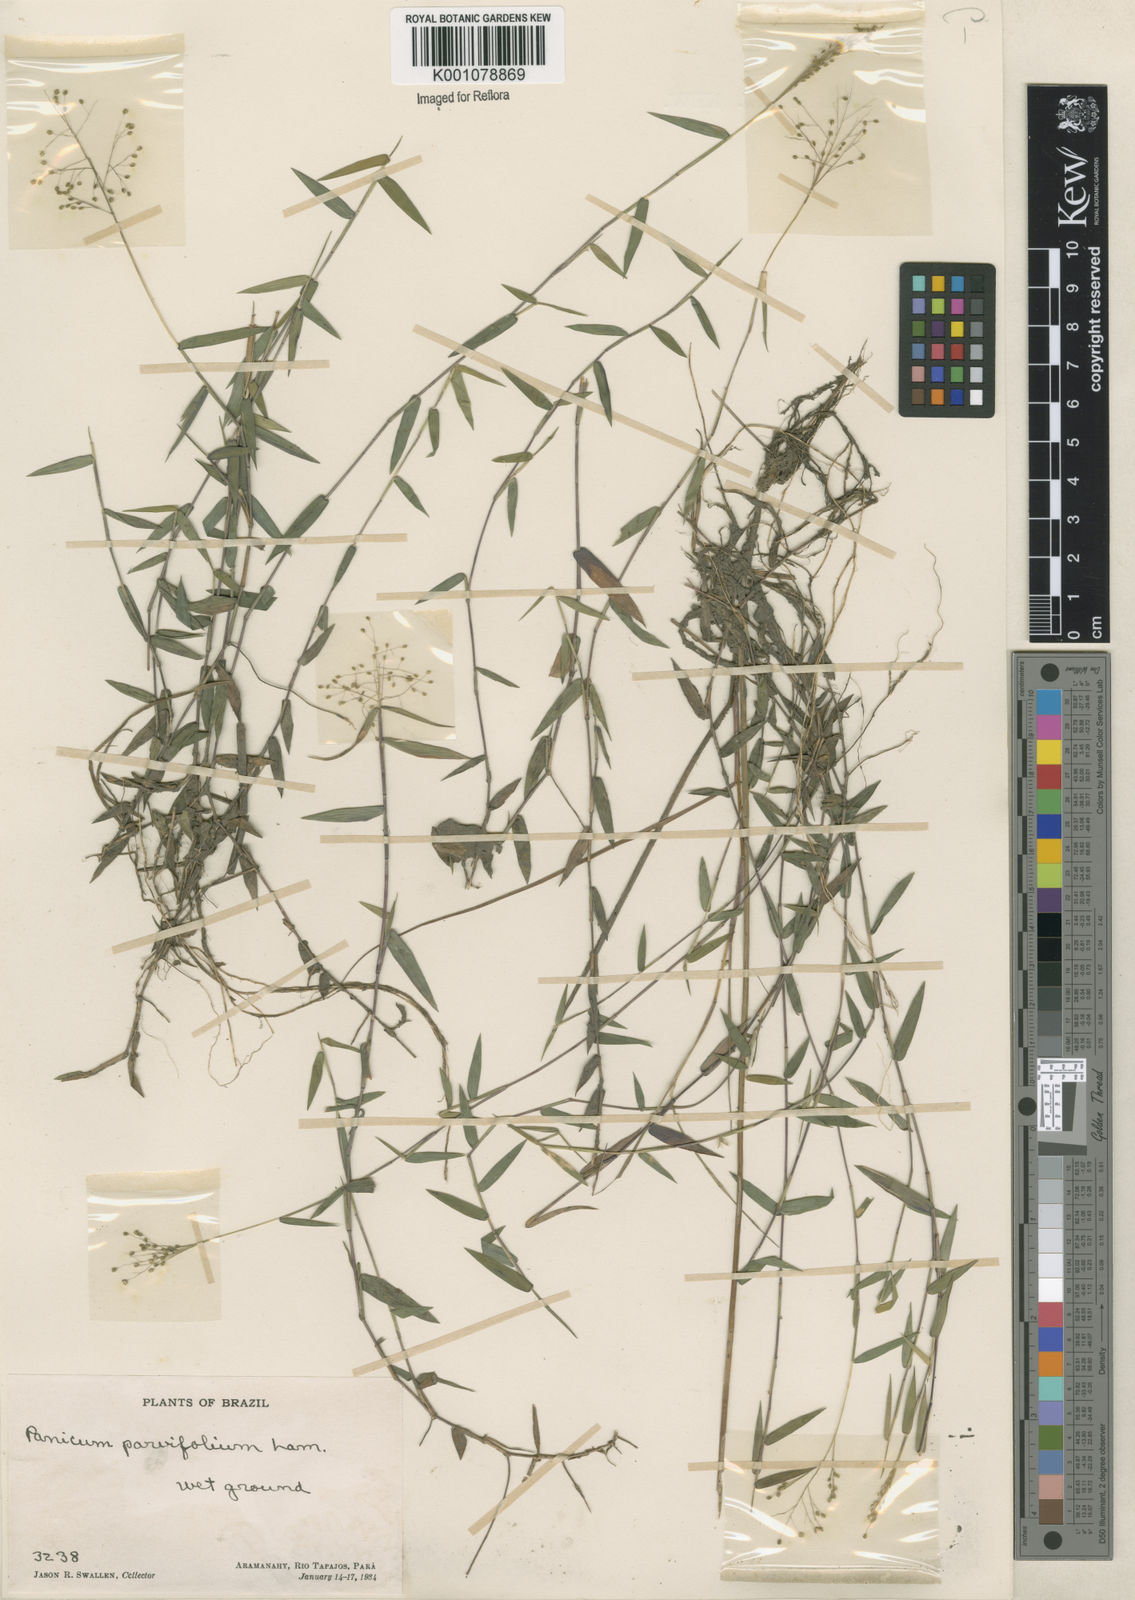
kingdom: Plantae
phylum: Tracheophyta
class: Liliopsida
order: Poales
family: Poaceae
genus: Trichanthecium
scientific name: Trichanthecium parvifolium
